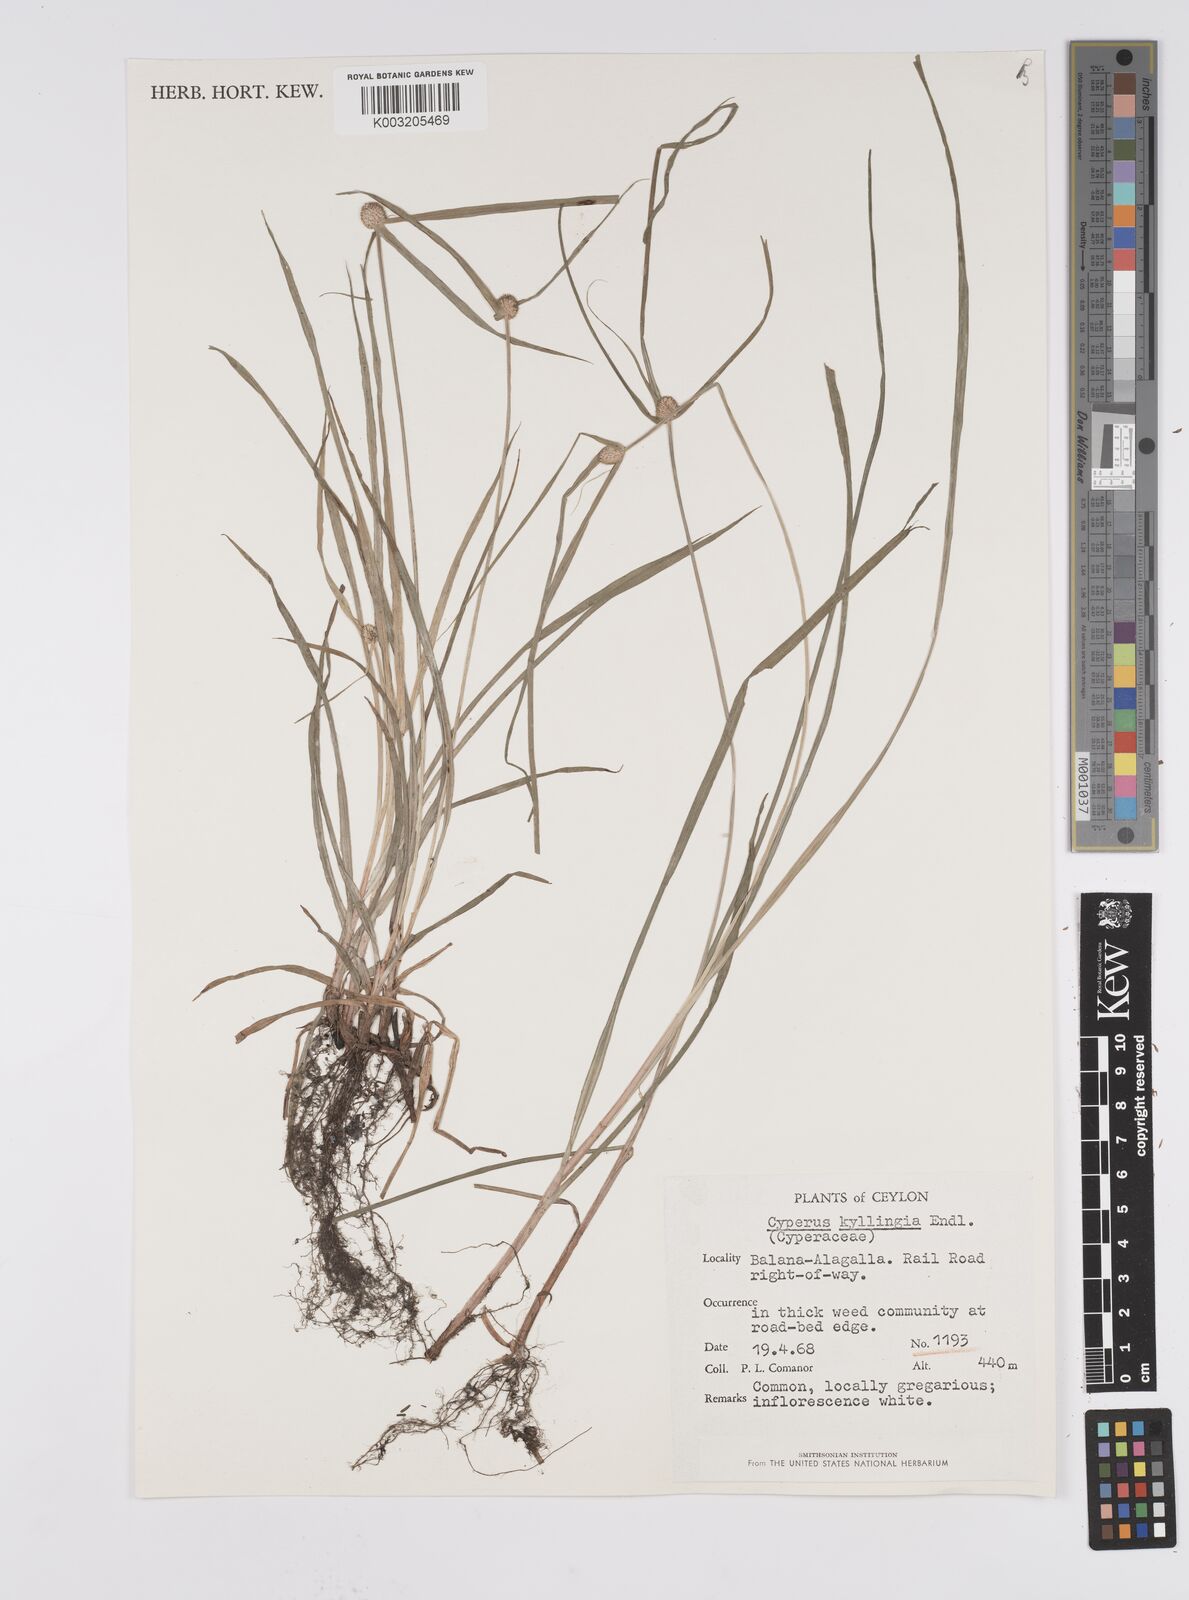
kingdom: Plantae
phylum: Tracheophyta
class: Liliopsida
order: Poales
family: Cyperaceae
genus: Cyperus
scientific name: Cyperus nemoralis
